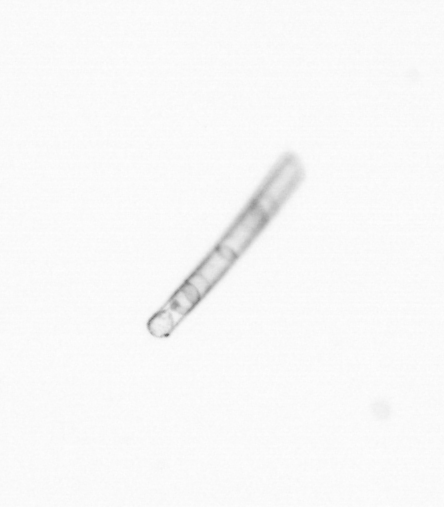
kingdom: Chromista
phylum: Ochrophyta
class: Bacillariophyceae
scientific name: Bacillariophyceae
